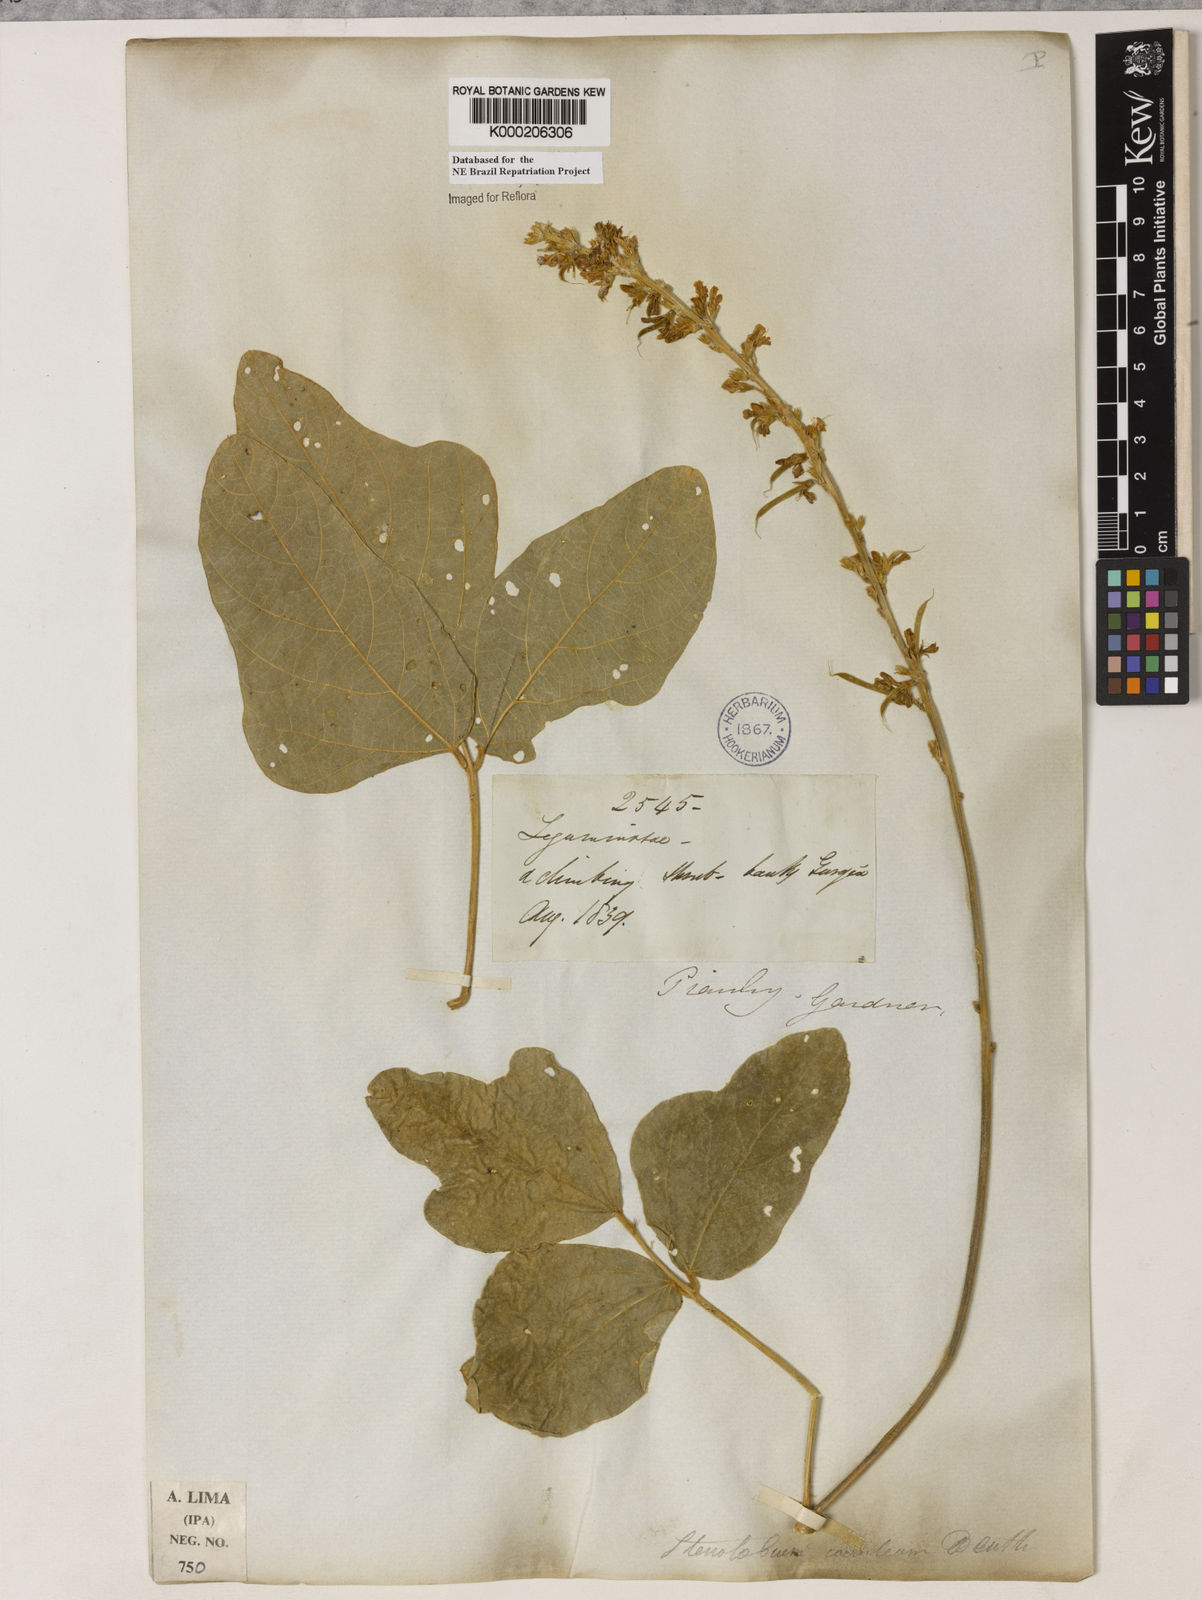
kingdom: Plantae
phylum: Tracheophyta
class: Magnoliopsida
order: Fabales
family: Fabaceae
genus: Calopogonium
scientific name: Calopogonium
